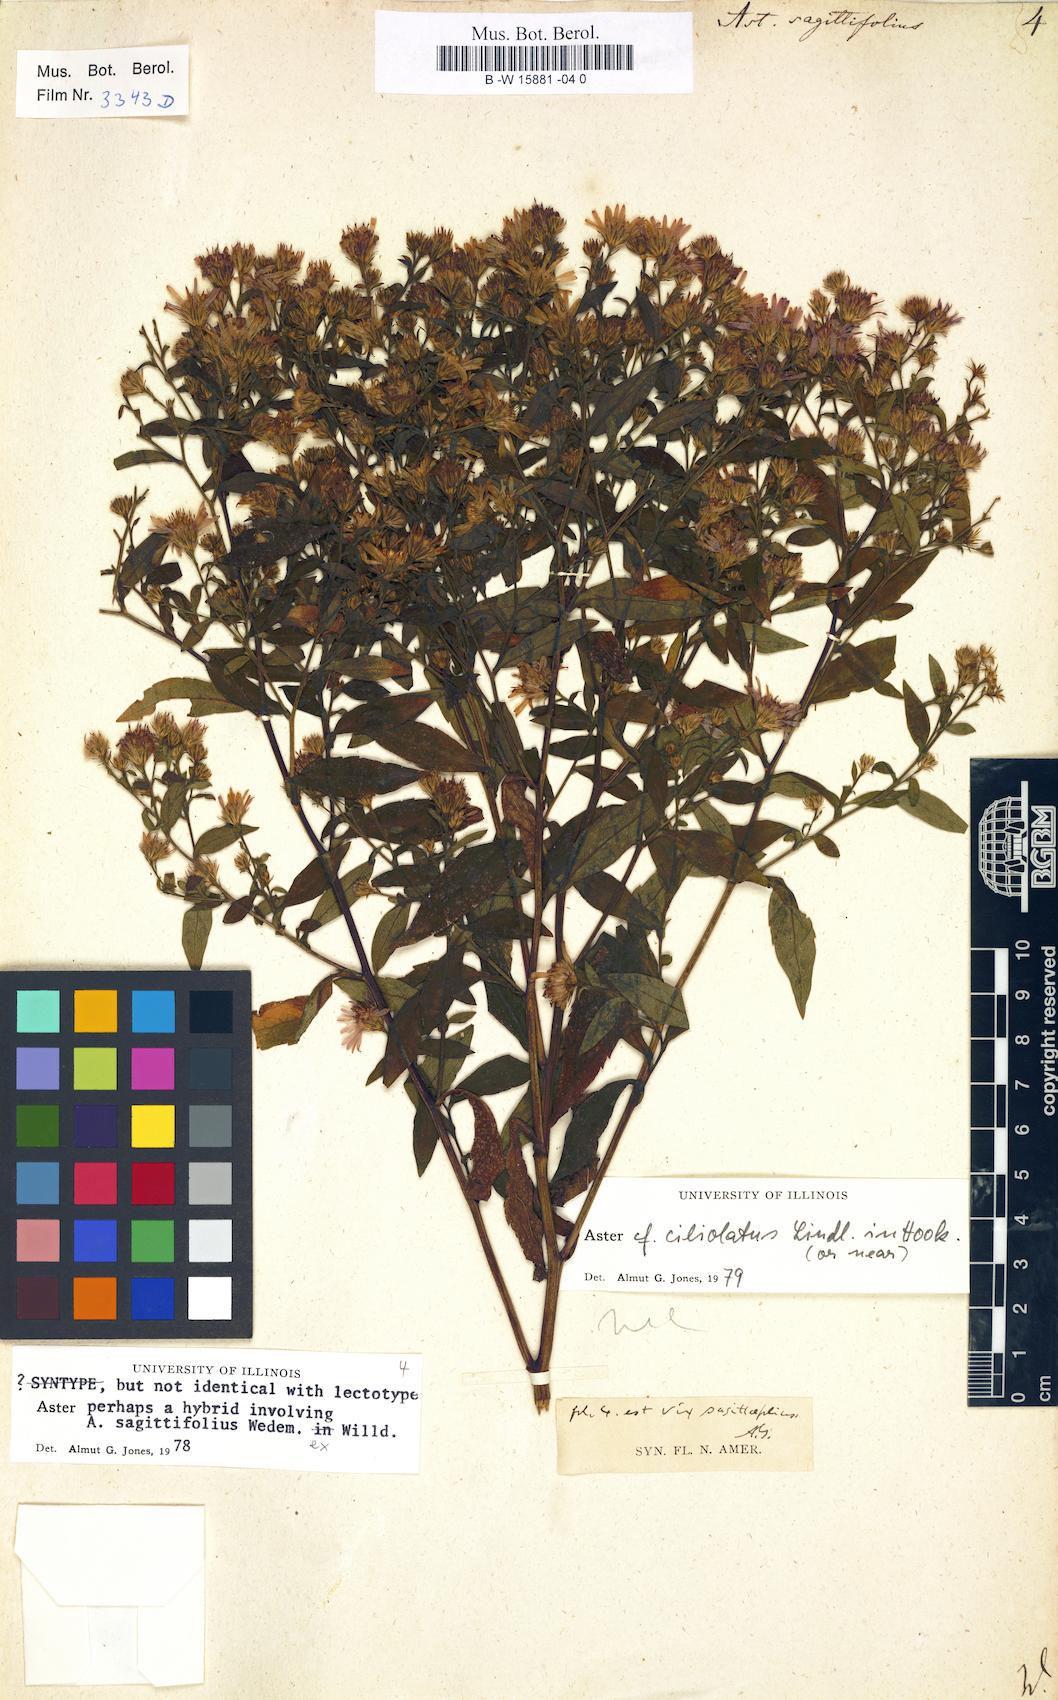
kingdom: Plantae
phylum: Tracheophyta
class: Magnoliopsida
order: Asterales
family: Asteraceae
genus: Symphyotrichum
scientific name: Symphyotrichum cordifolium
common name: Beeweed
